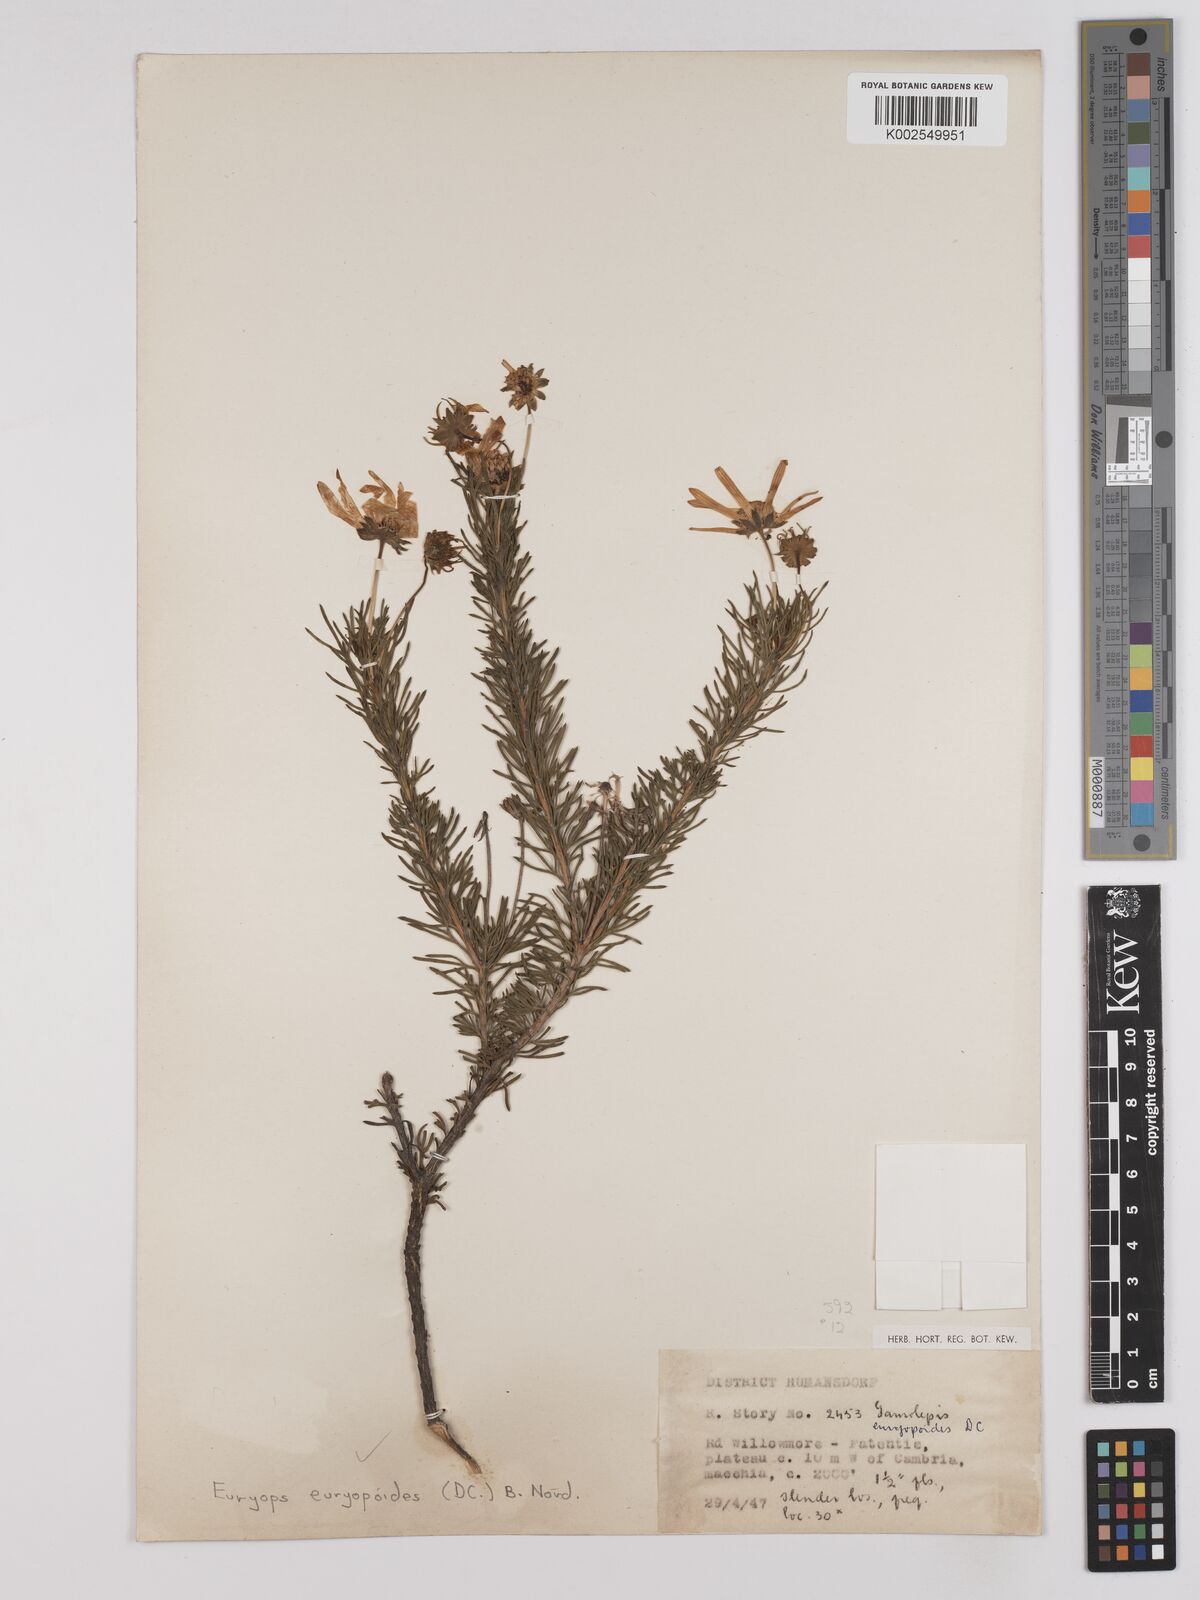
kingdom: Plantae
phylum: Tracheophyta
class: Magnoliopsida
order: Asterales
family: Asteraceae
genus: Euryops
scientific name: Euryops euryopoides
